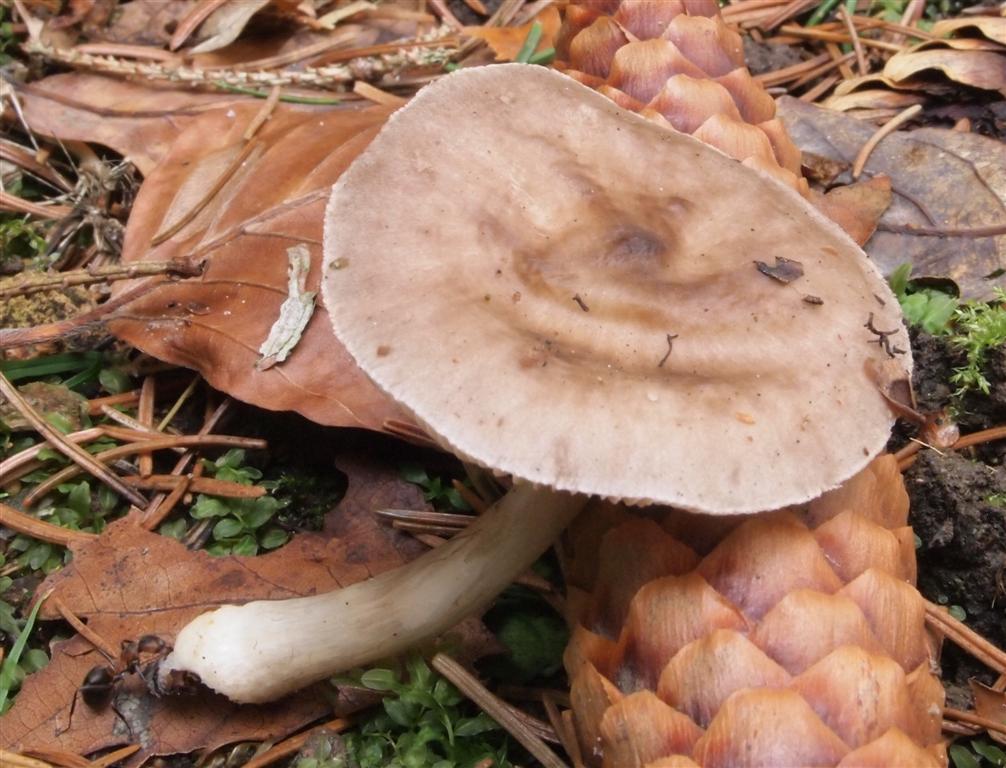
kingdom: Fungi
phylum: Basidiomycota
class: Agaricomycetes
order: Agaricales
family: Pluteaceae
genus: Pluteus
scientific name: Pluteus cervinus
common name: sodfarvet skærmhat
